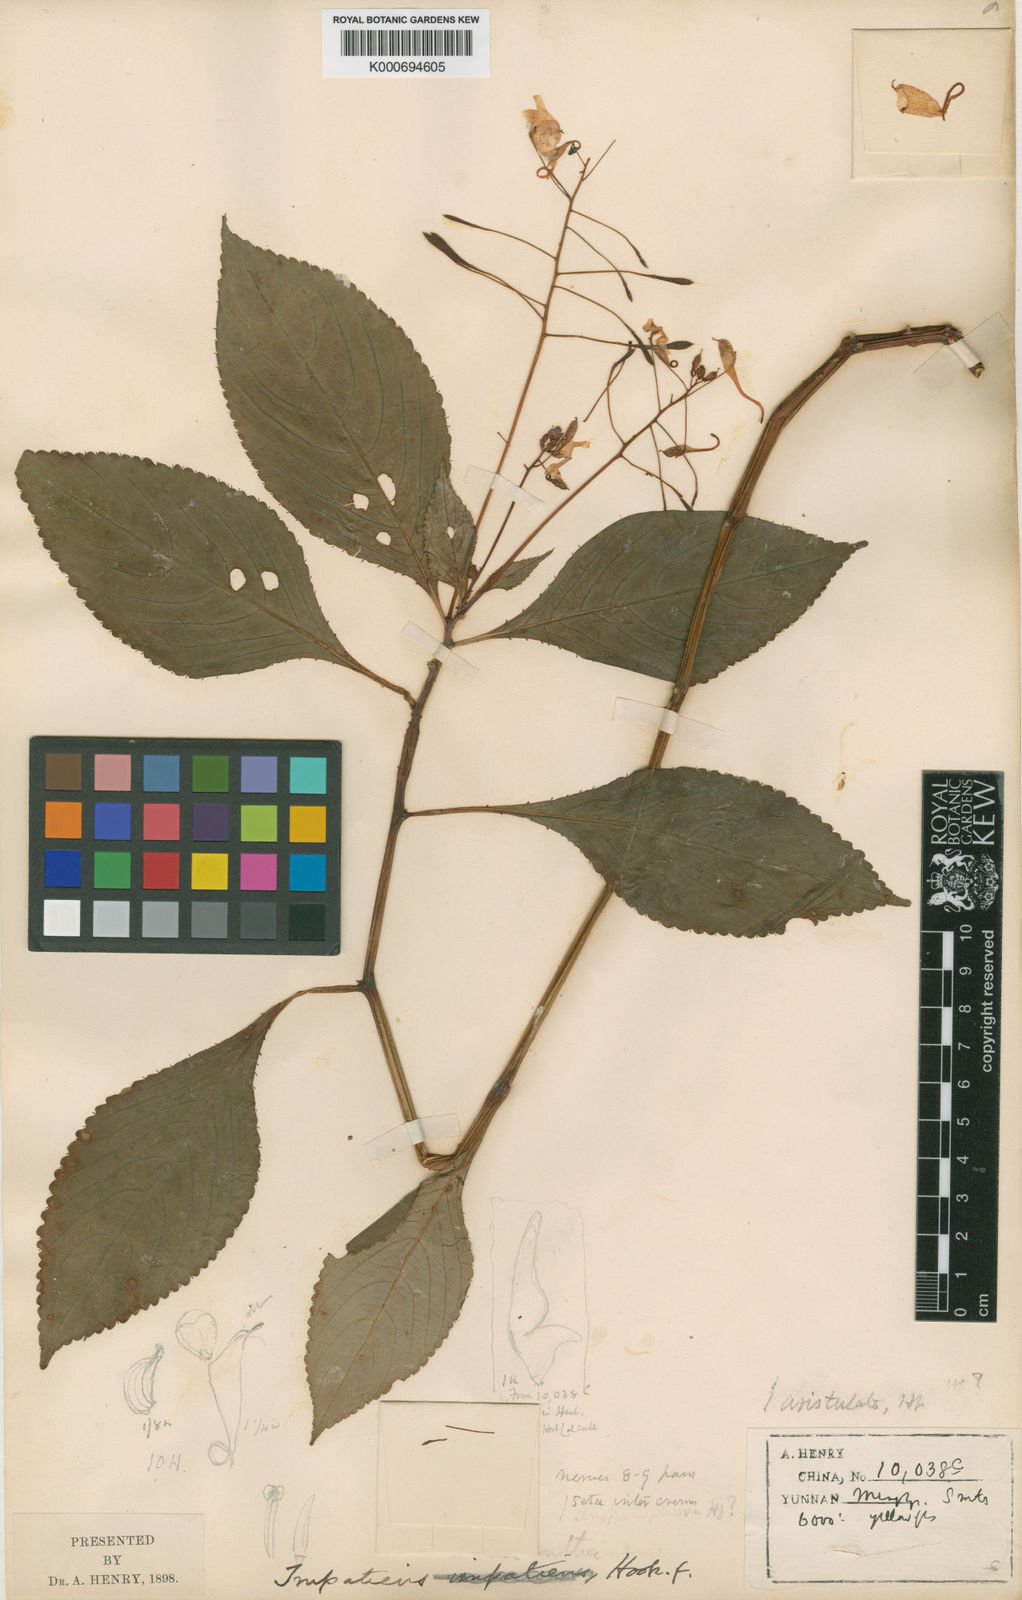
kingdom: Plantae
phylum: Tracheophyta
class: Magnoliopsida
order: Ericales
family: Balsaminaceae
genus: Impatiens
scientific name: Impatiens
